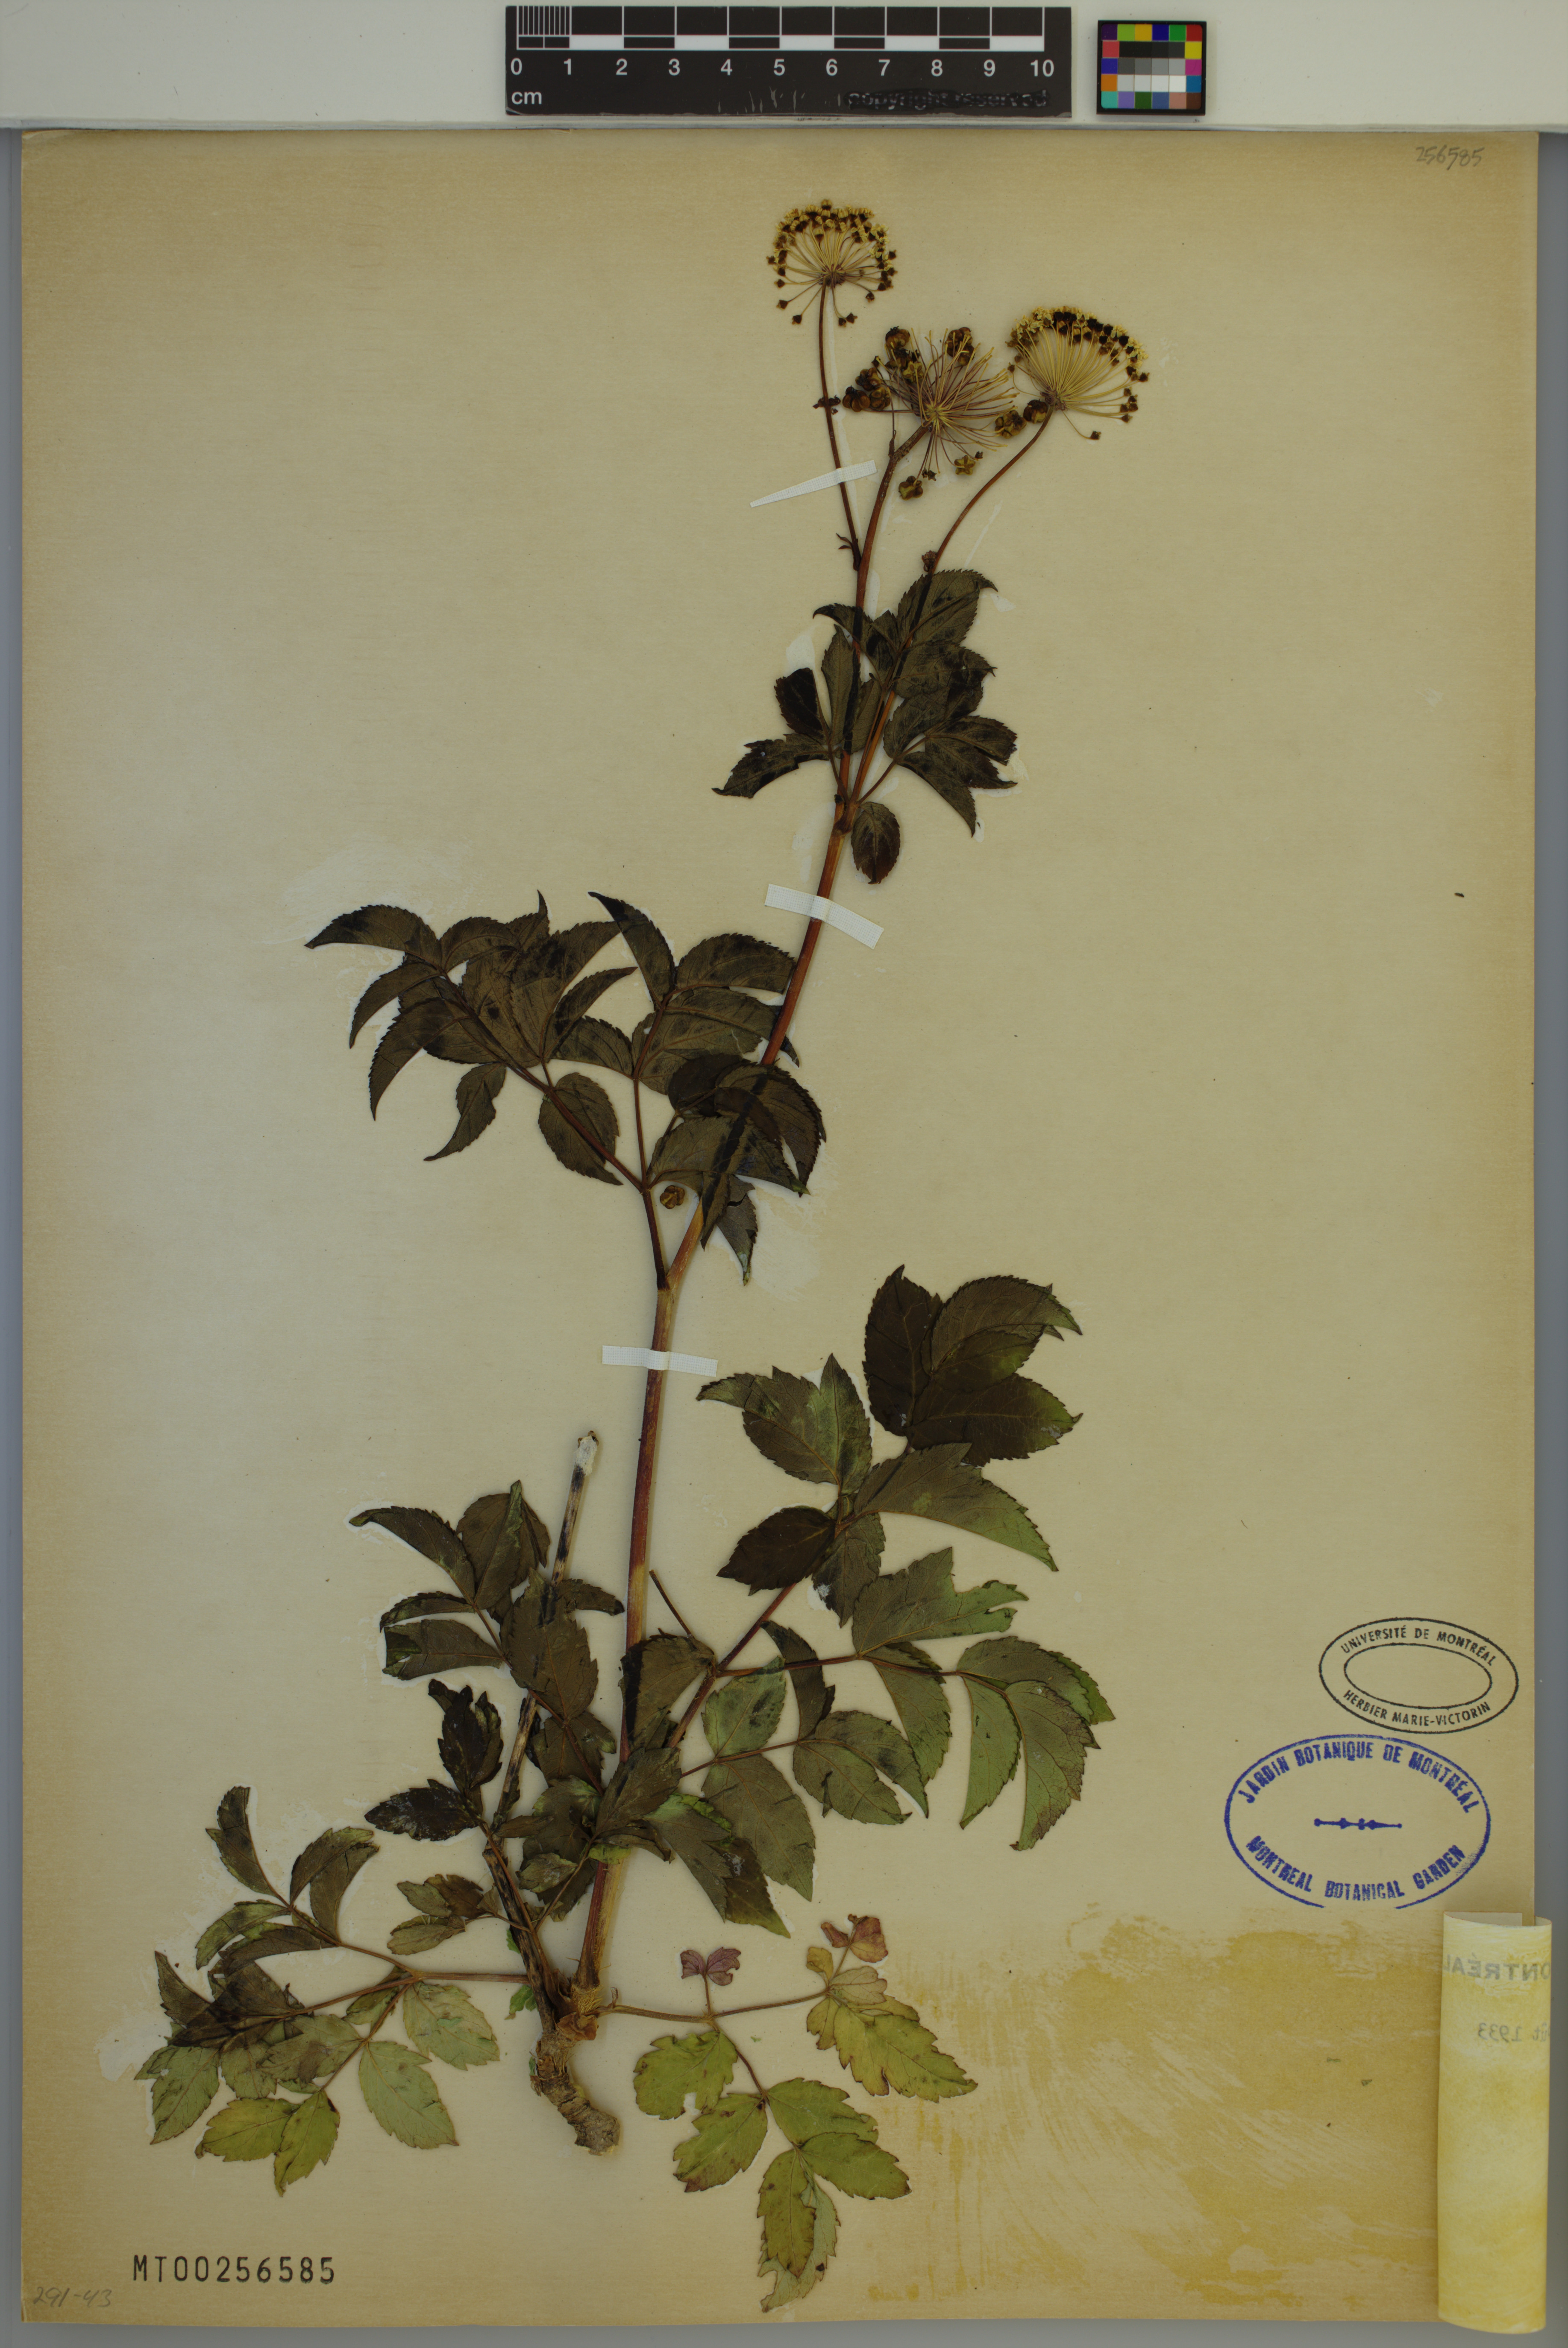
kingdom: Plantae
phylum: Tracheophyta
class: Magnoliopsida
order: Apiales
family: Araliaceae
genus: Aralia
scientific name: Aralia hispida
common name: Bristly sarsaparilla
